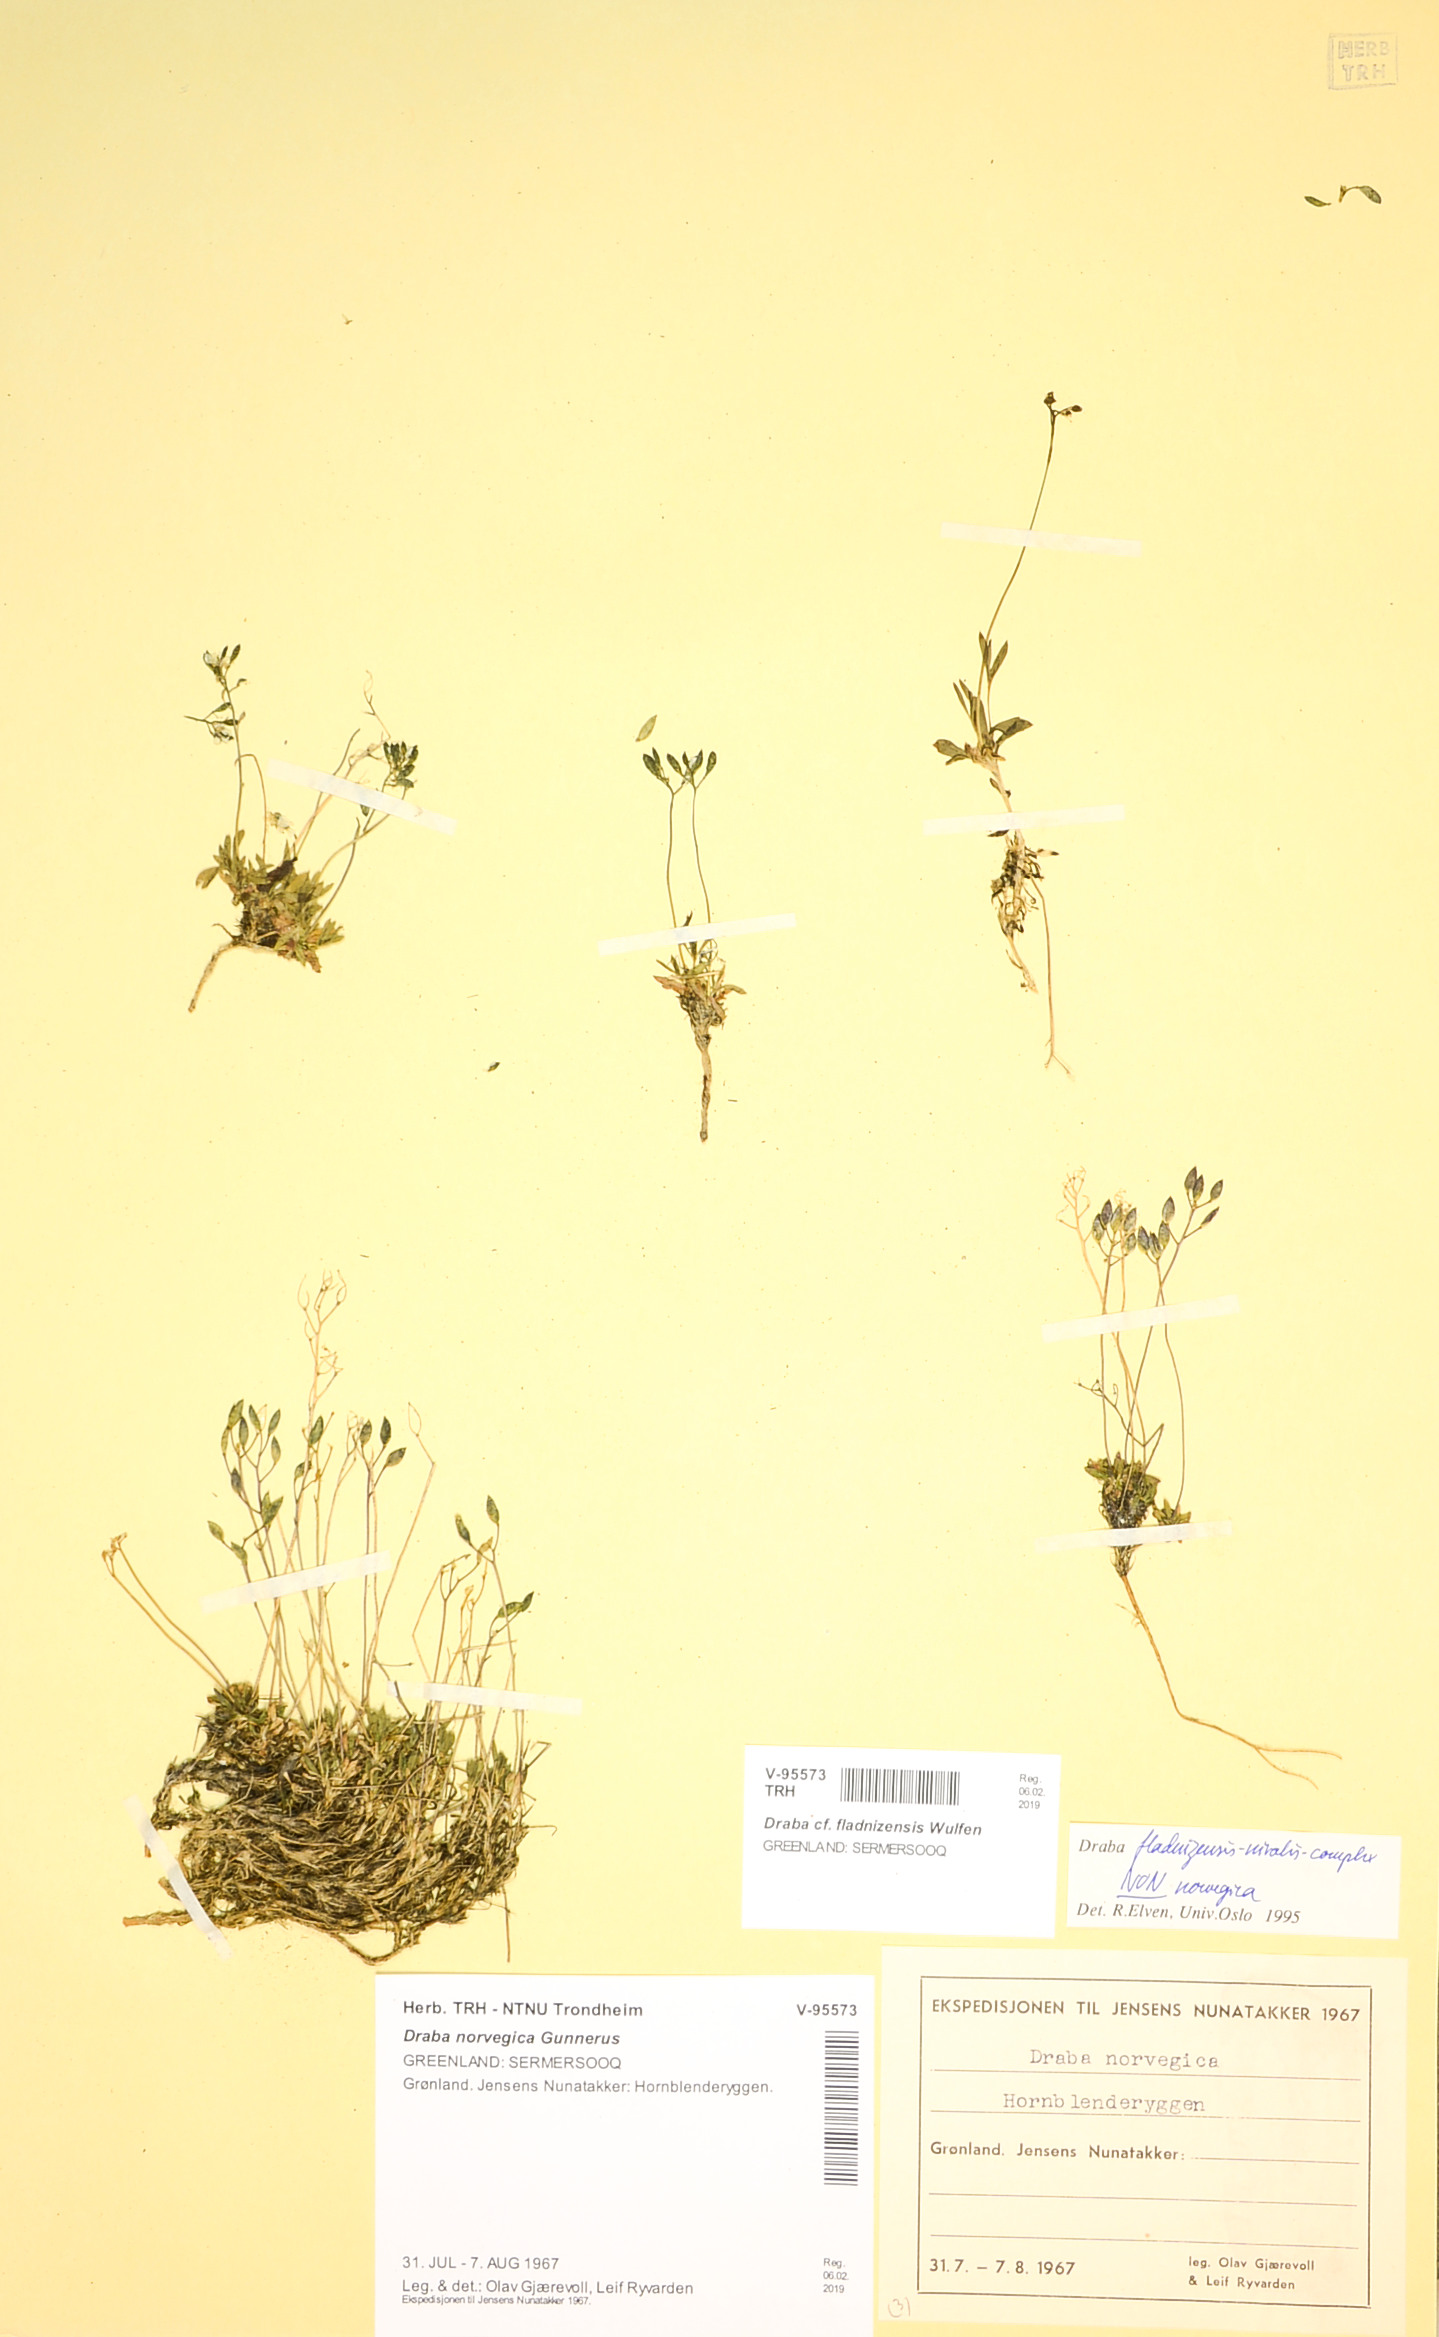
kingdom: Plantae
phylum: Tracheophyta
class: Magnoliopsida
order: Brassicales
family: Brassicaceae
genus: Draba
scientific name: Draba fladnizensis
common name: Austrian draba
